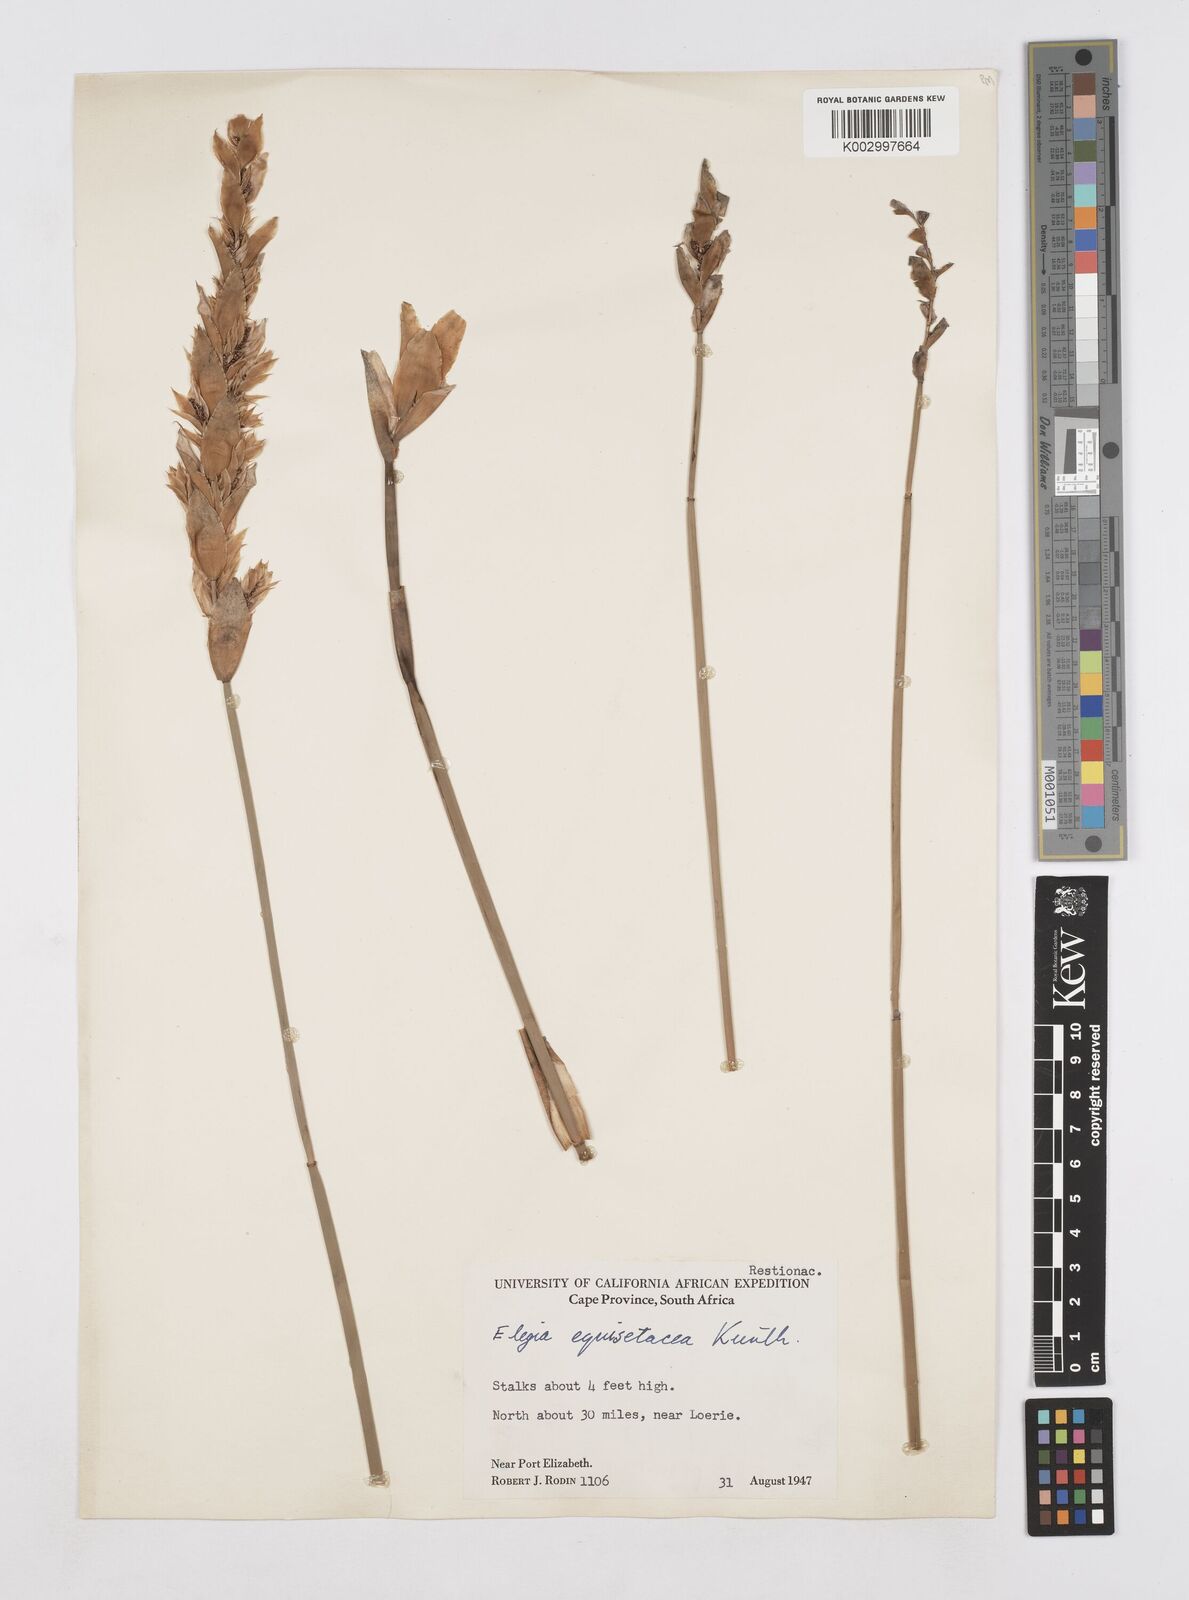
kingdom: Plantae
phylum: Tracheophyta
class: Liliopsida
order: Poales
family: Restionaceae
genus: Elegia
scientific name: Elegia fistulosa
